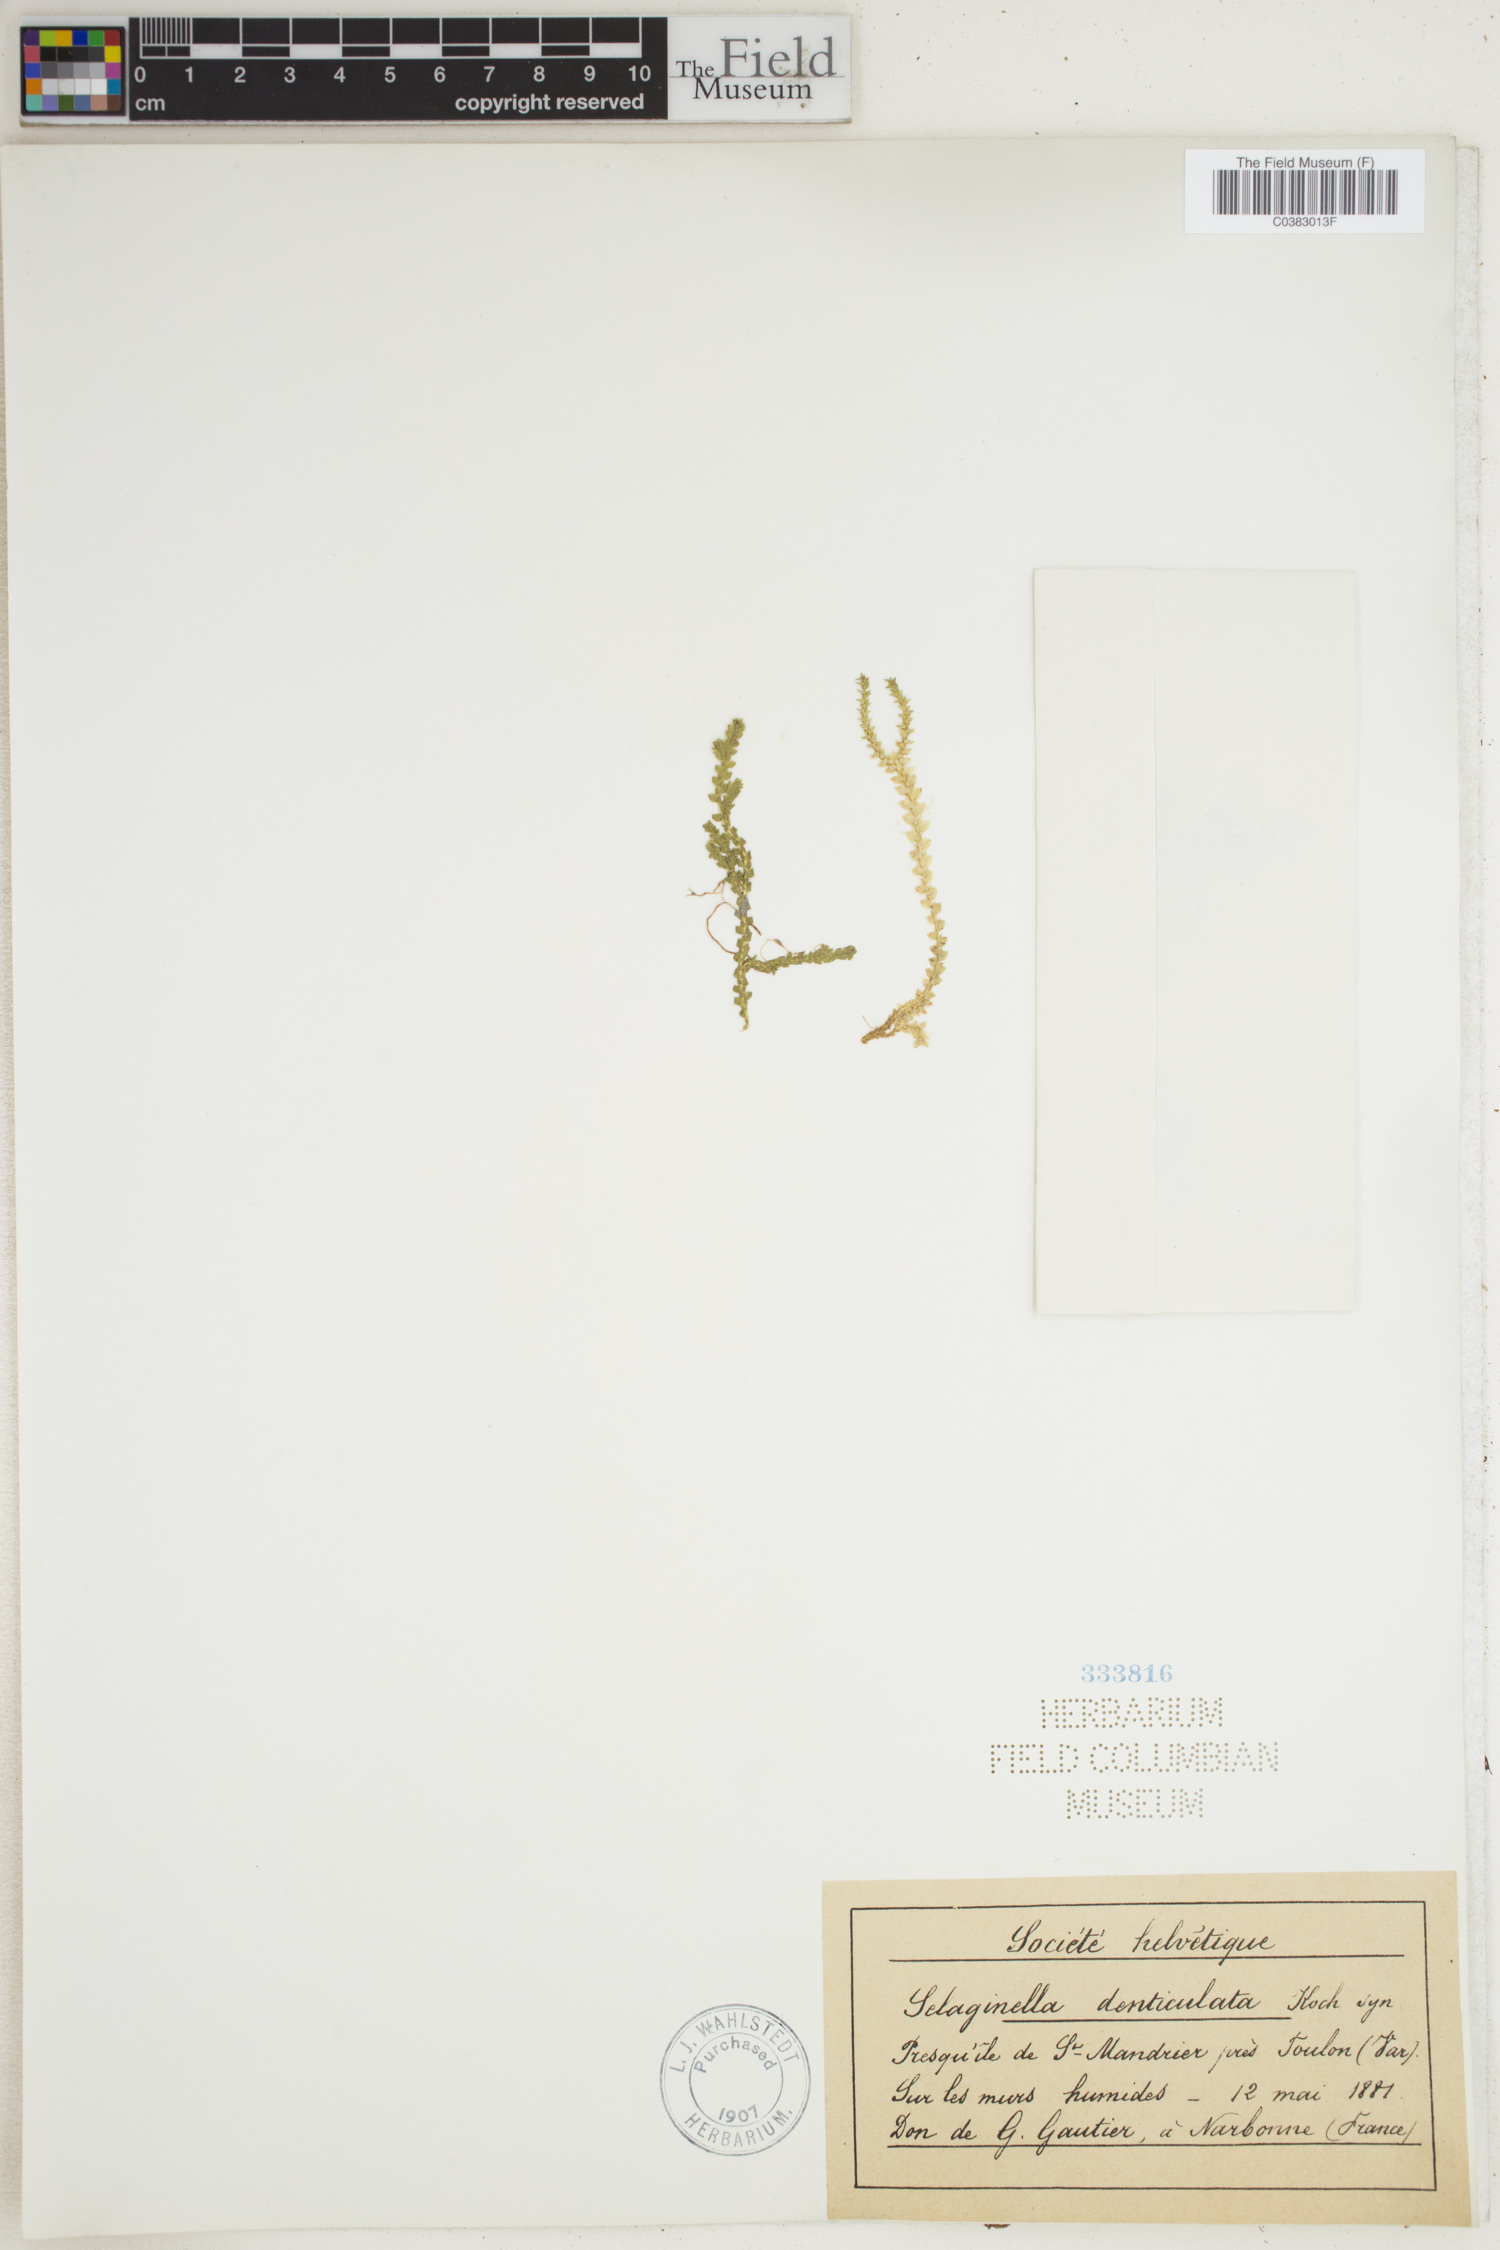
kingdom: Plantae
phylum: Tracheophyta
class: Lycopodiopsida
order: Selaginellales
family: Selaginellaceae
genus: Selaginella
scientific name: Selaginella denticulata
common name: Toothed-leaved clubmoss
